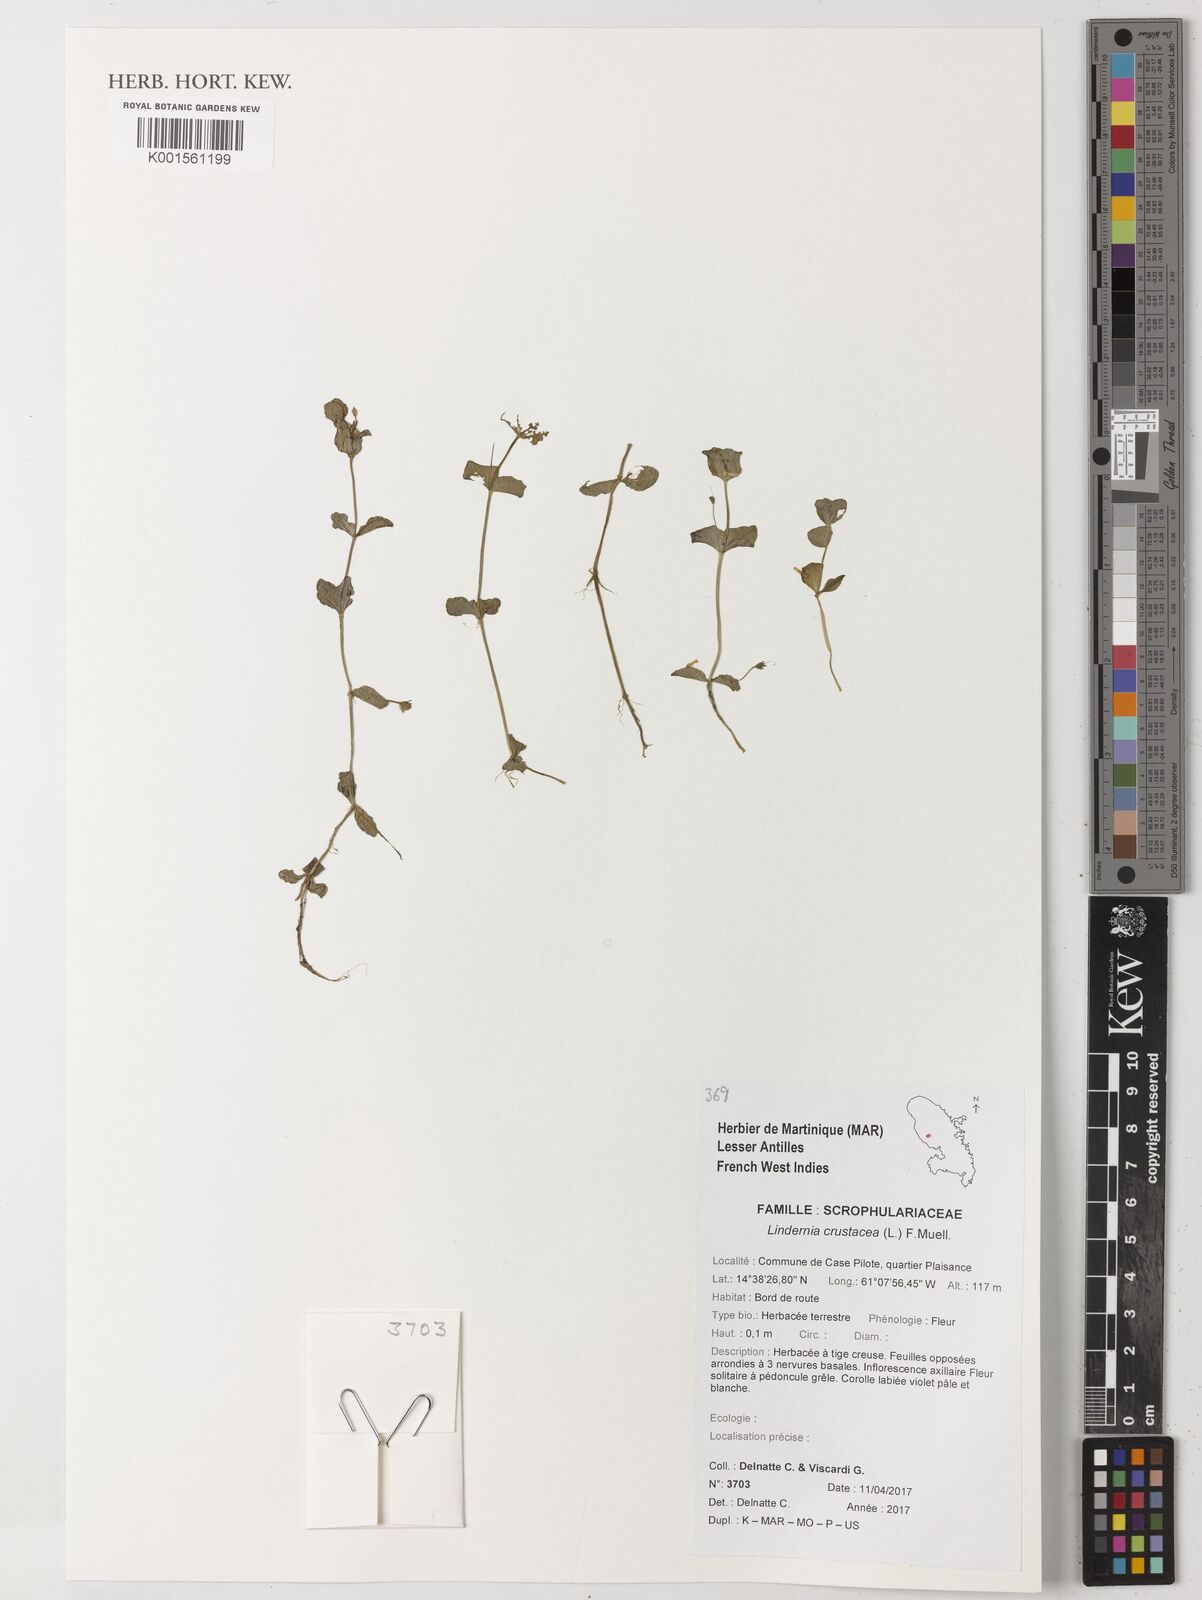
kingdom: Plantae
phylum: Tracheophyta
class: Magnoliopsida
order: Lamiales
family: Linderniaceae
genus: Torenia
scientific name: Torenia crustacea
